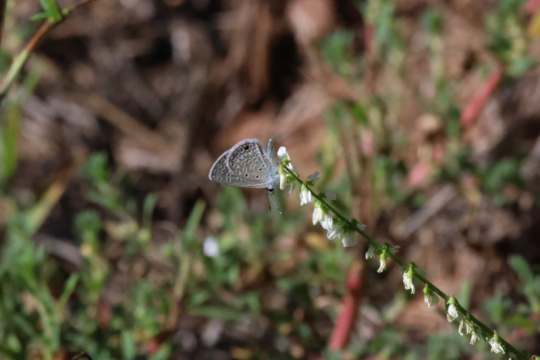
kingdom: Animalia
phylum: Arthropoda
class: Insecta
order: Lepidoptera
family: Lycaenidae
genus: Hemiargus
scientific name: Hemiargus ceraunus
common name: Ceraunus Blue
